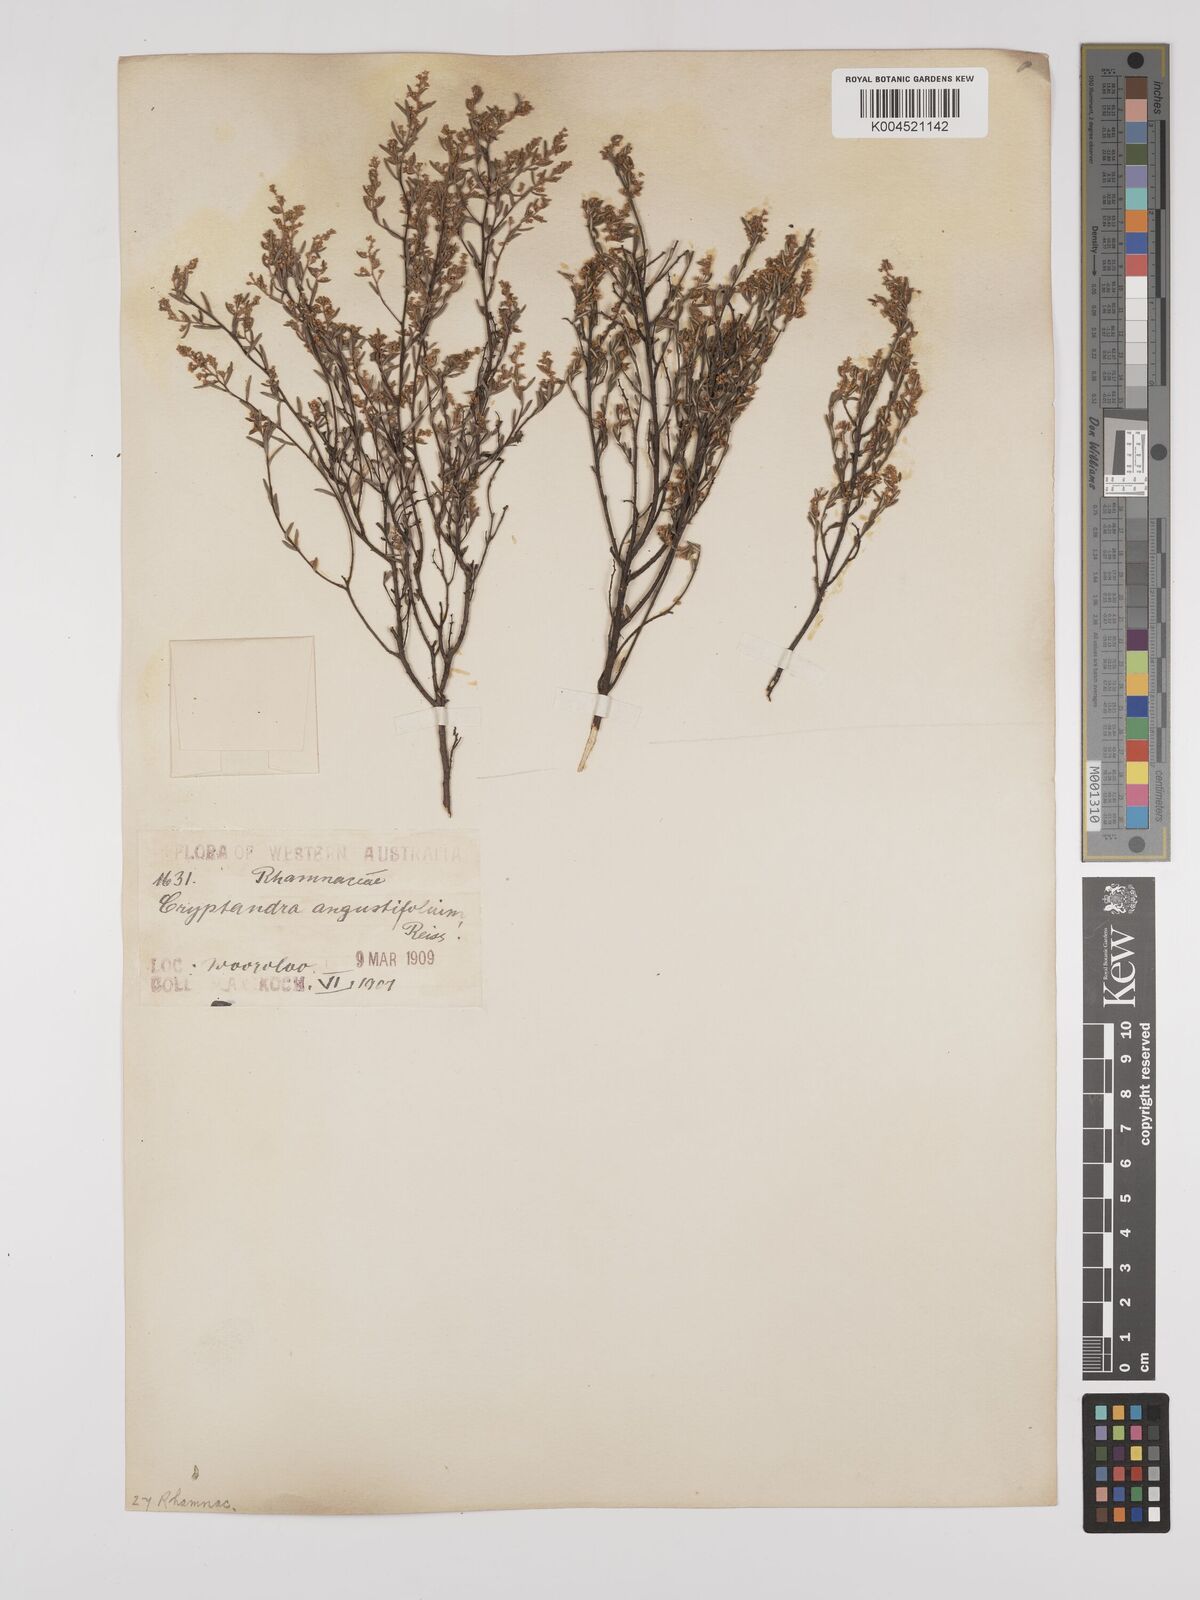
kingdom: Plantae
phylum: Tracheophyta
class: Magnoliopsida
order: Rosales
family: Rhamnaceae
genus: Trymalium
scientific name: Trymalium angustifolium
